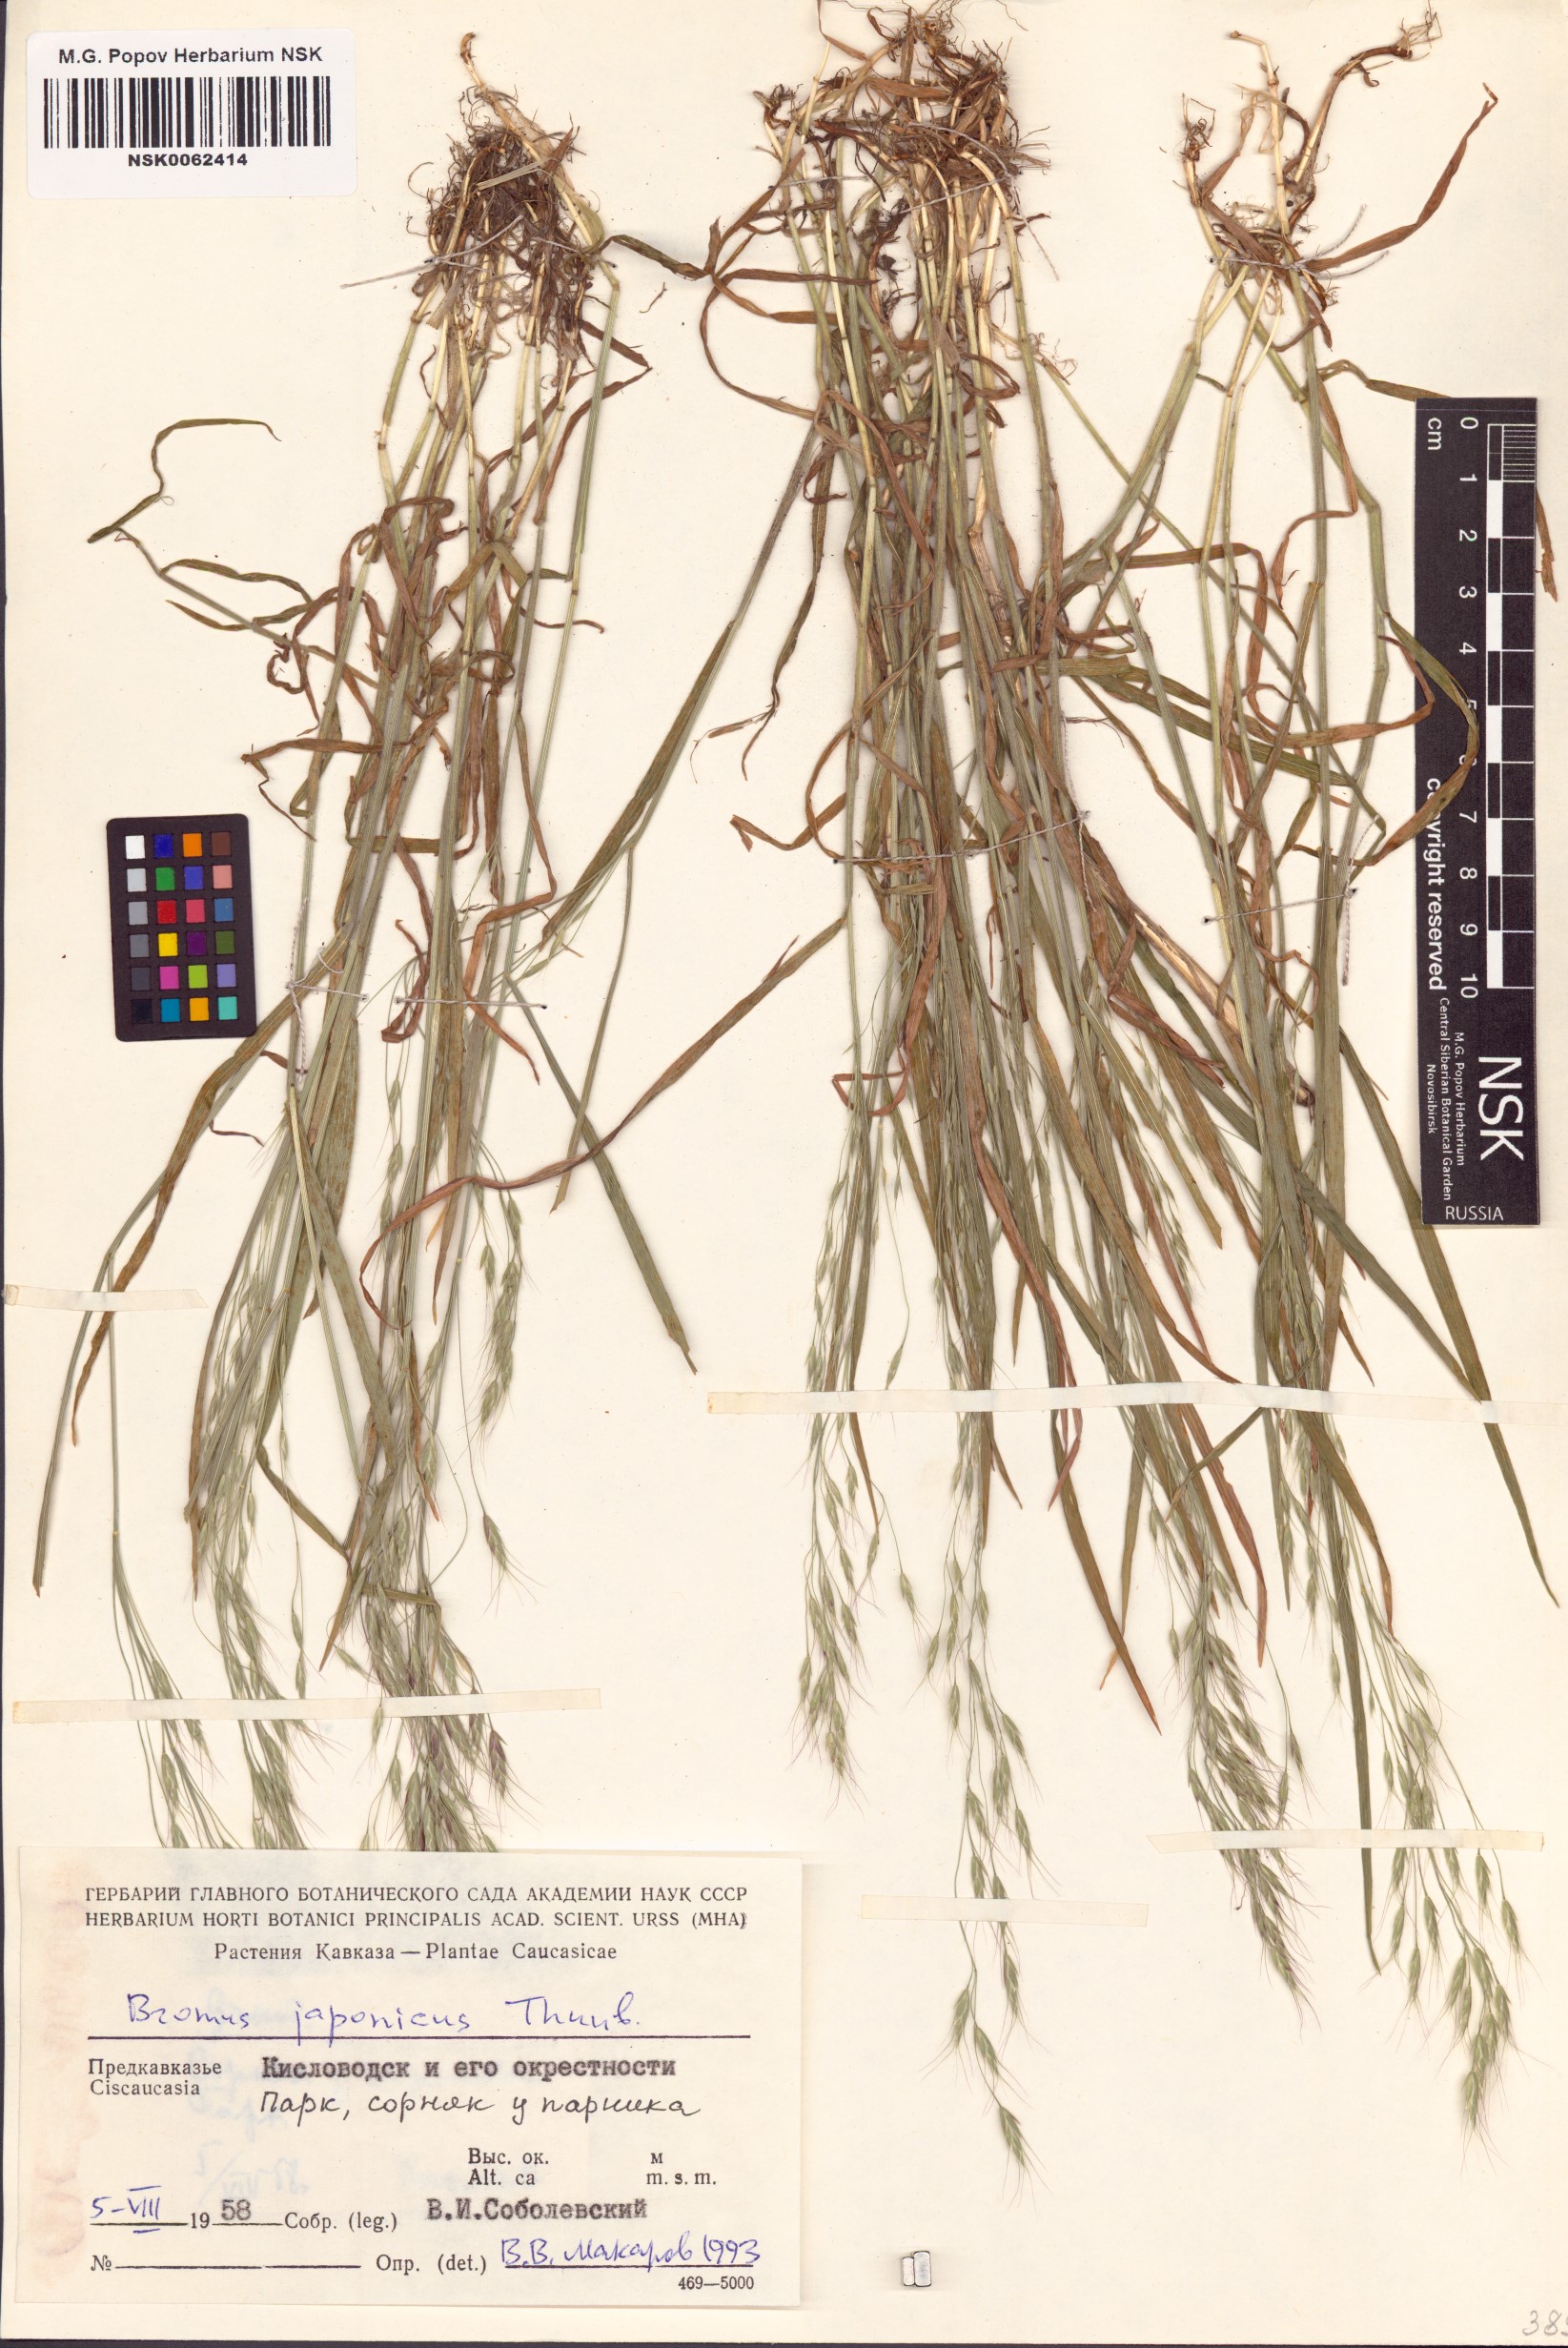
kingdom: Plantae
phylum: Tracheophyta
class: Liliopsida
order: Poales
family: Poaceae
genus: Bromus
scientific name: Bromus japonicus
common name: Japanese brome
